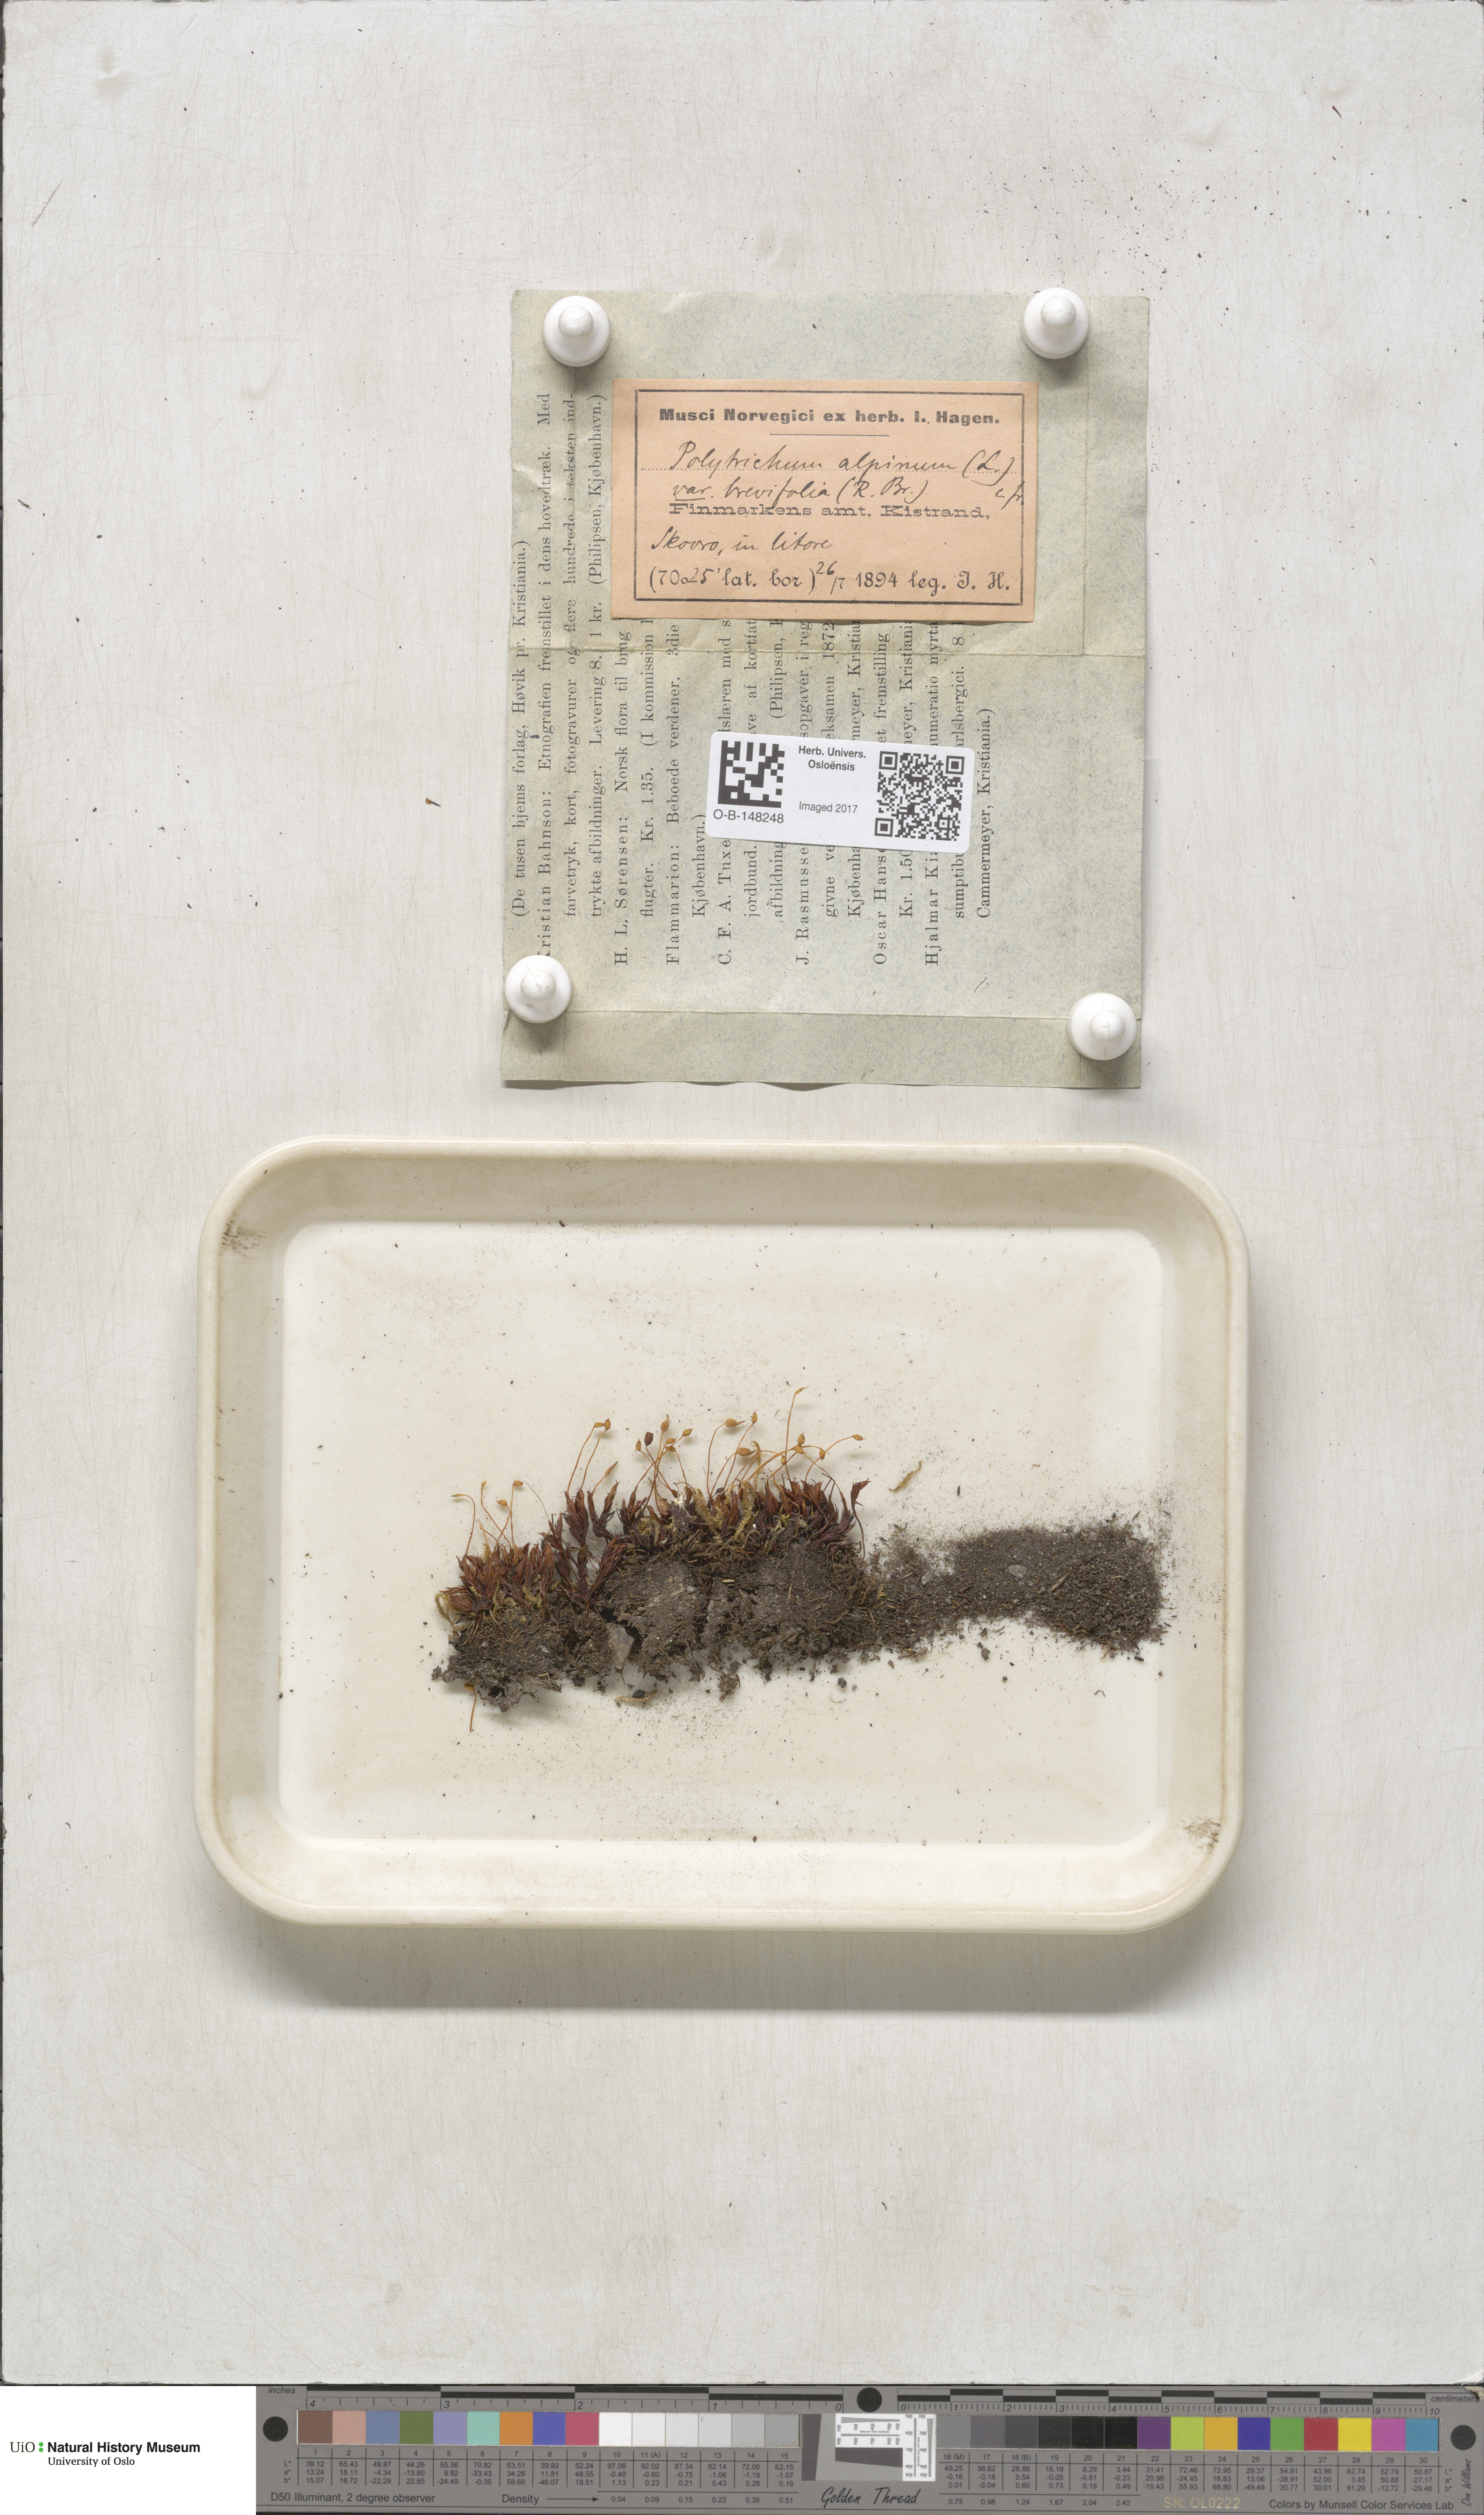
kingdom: Plantae
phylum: Bryophyta
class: Polytrichopsida
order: Polytrichales
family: Polytrichaceae
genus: Polytrichastrum
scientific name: Polytrichastrum alpinum
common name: Alpine haircap
